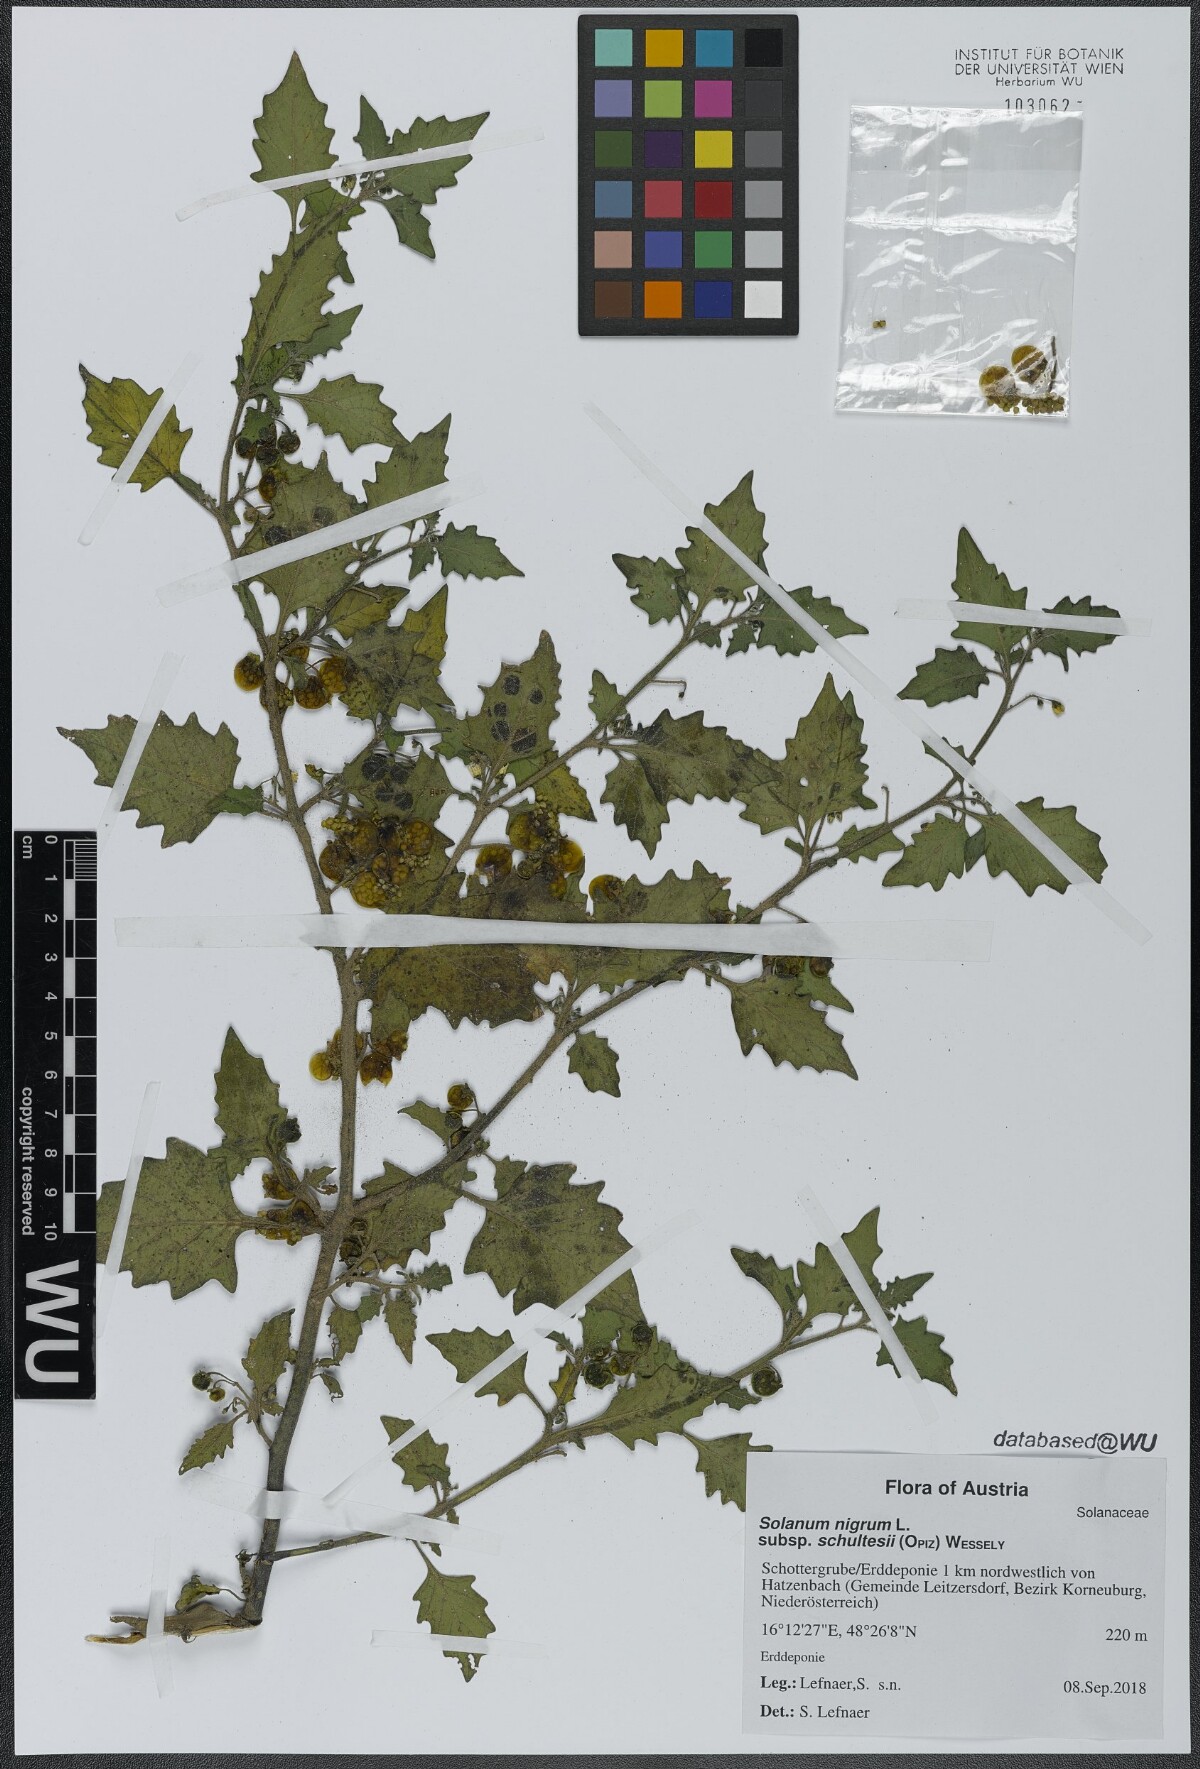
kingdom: Plantae
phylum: Tracheophyta
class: Magnoliopsida
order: Solanales
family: Solanaceae
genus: Solanum
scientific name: Solanum decipiens
